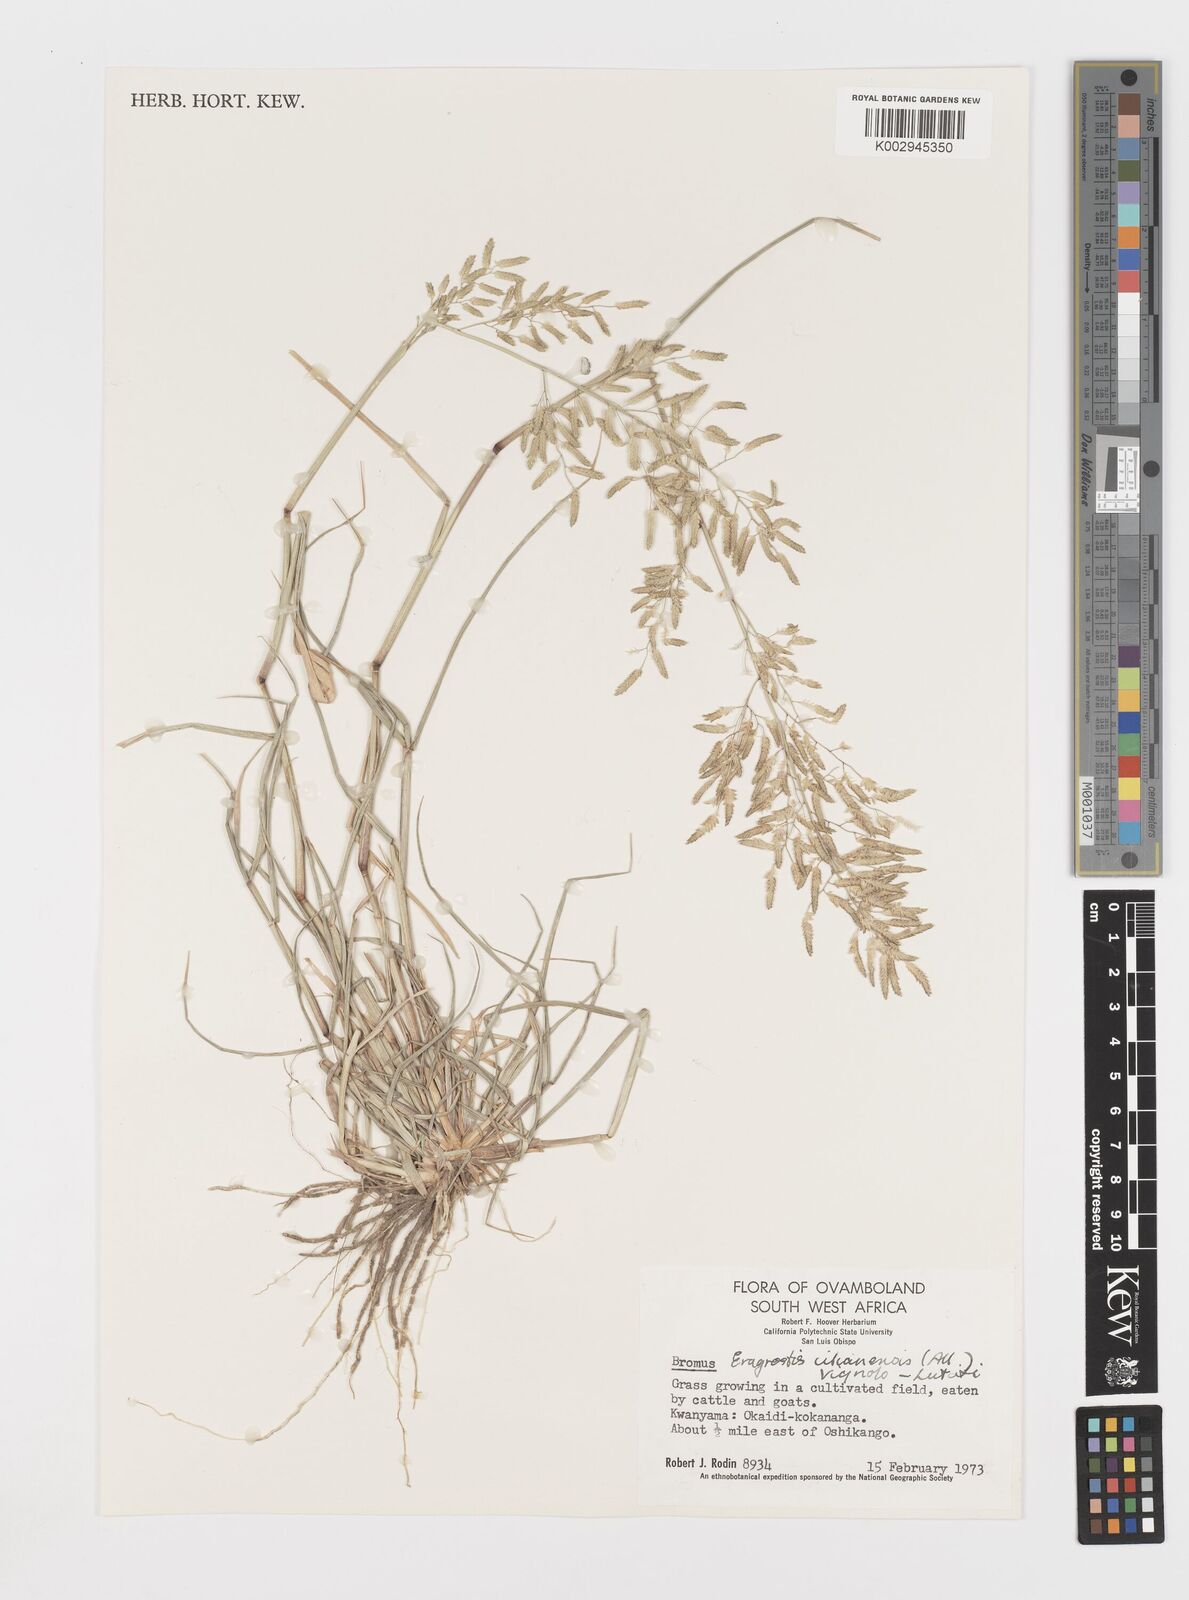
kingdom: Plantae
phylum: Tracheophyta
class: Liliopsida
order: Poales
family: Poaceae
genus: Eragrostis
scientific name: Eragrostis cilianensis
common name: Stinkgrass
